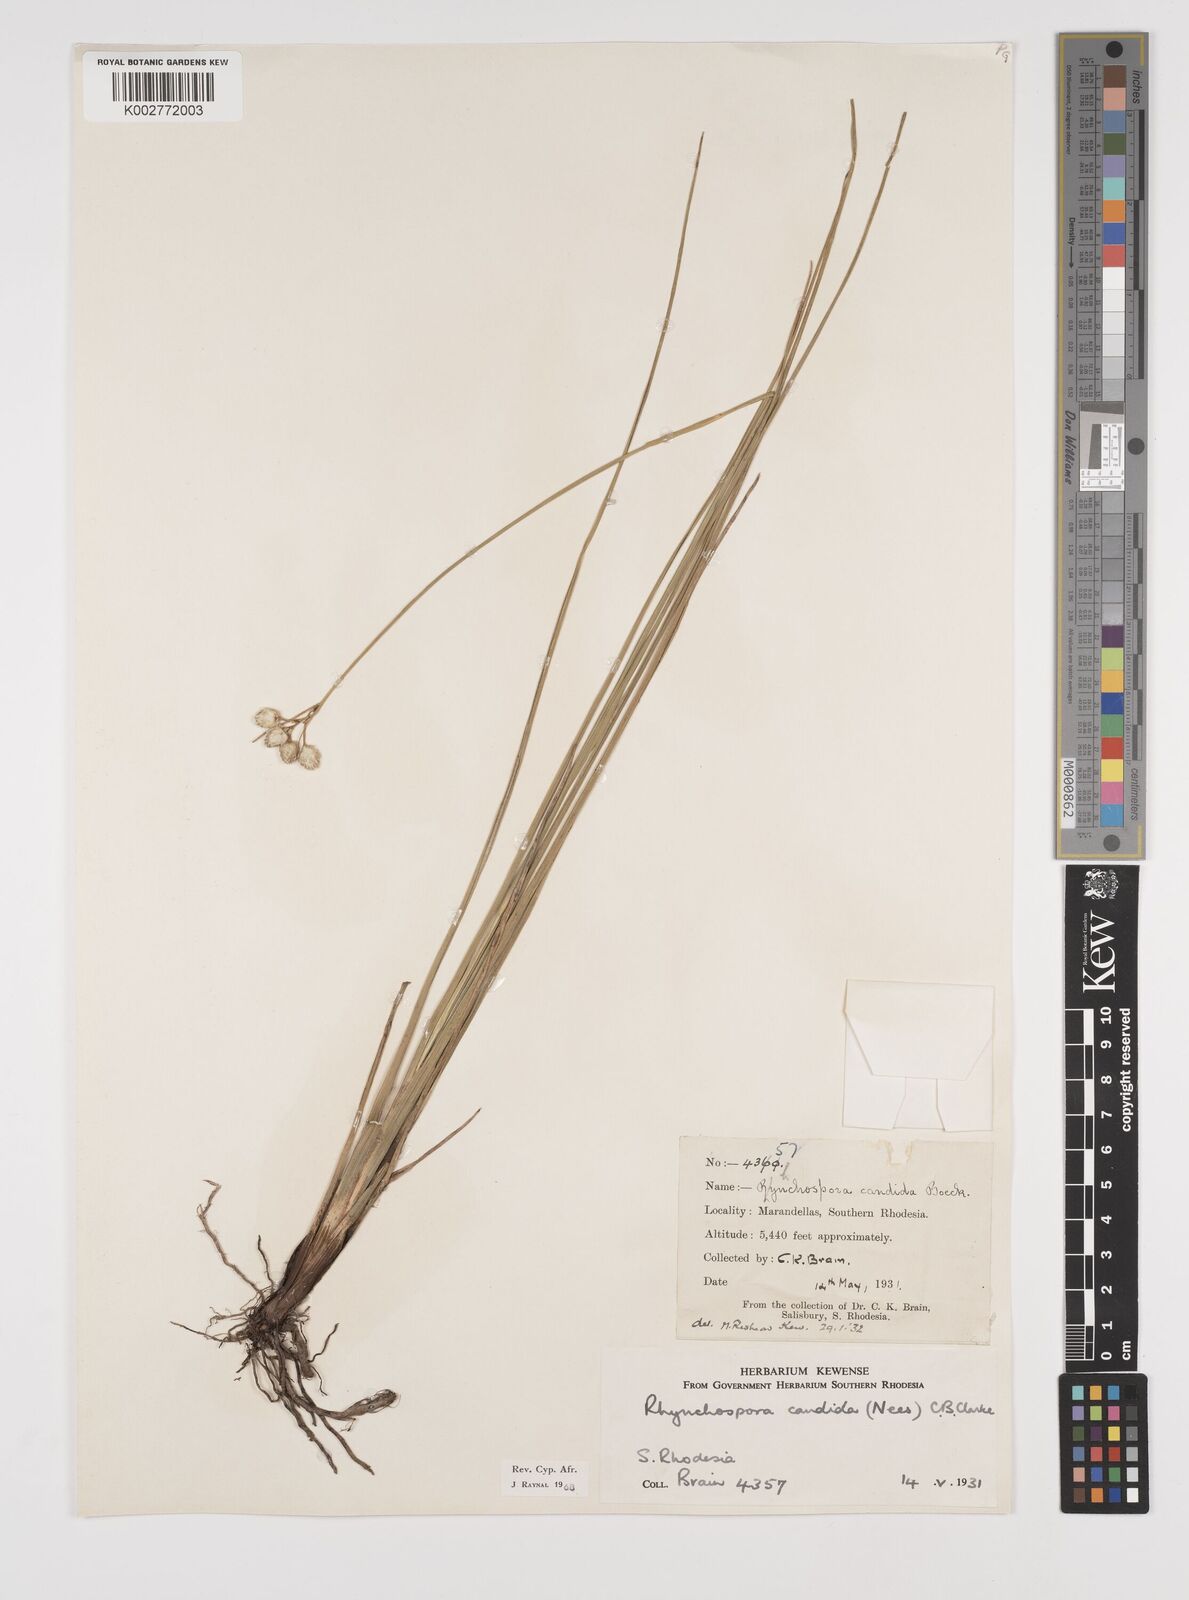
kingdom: Plantae
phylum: Tracheophyta
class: Liliopsida
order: Poales
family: Cyperaceae
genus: Rhynchospora
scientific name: Rhynchospora candida
